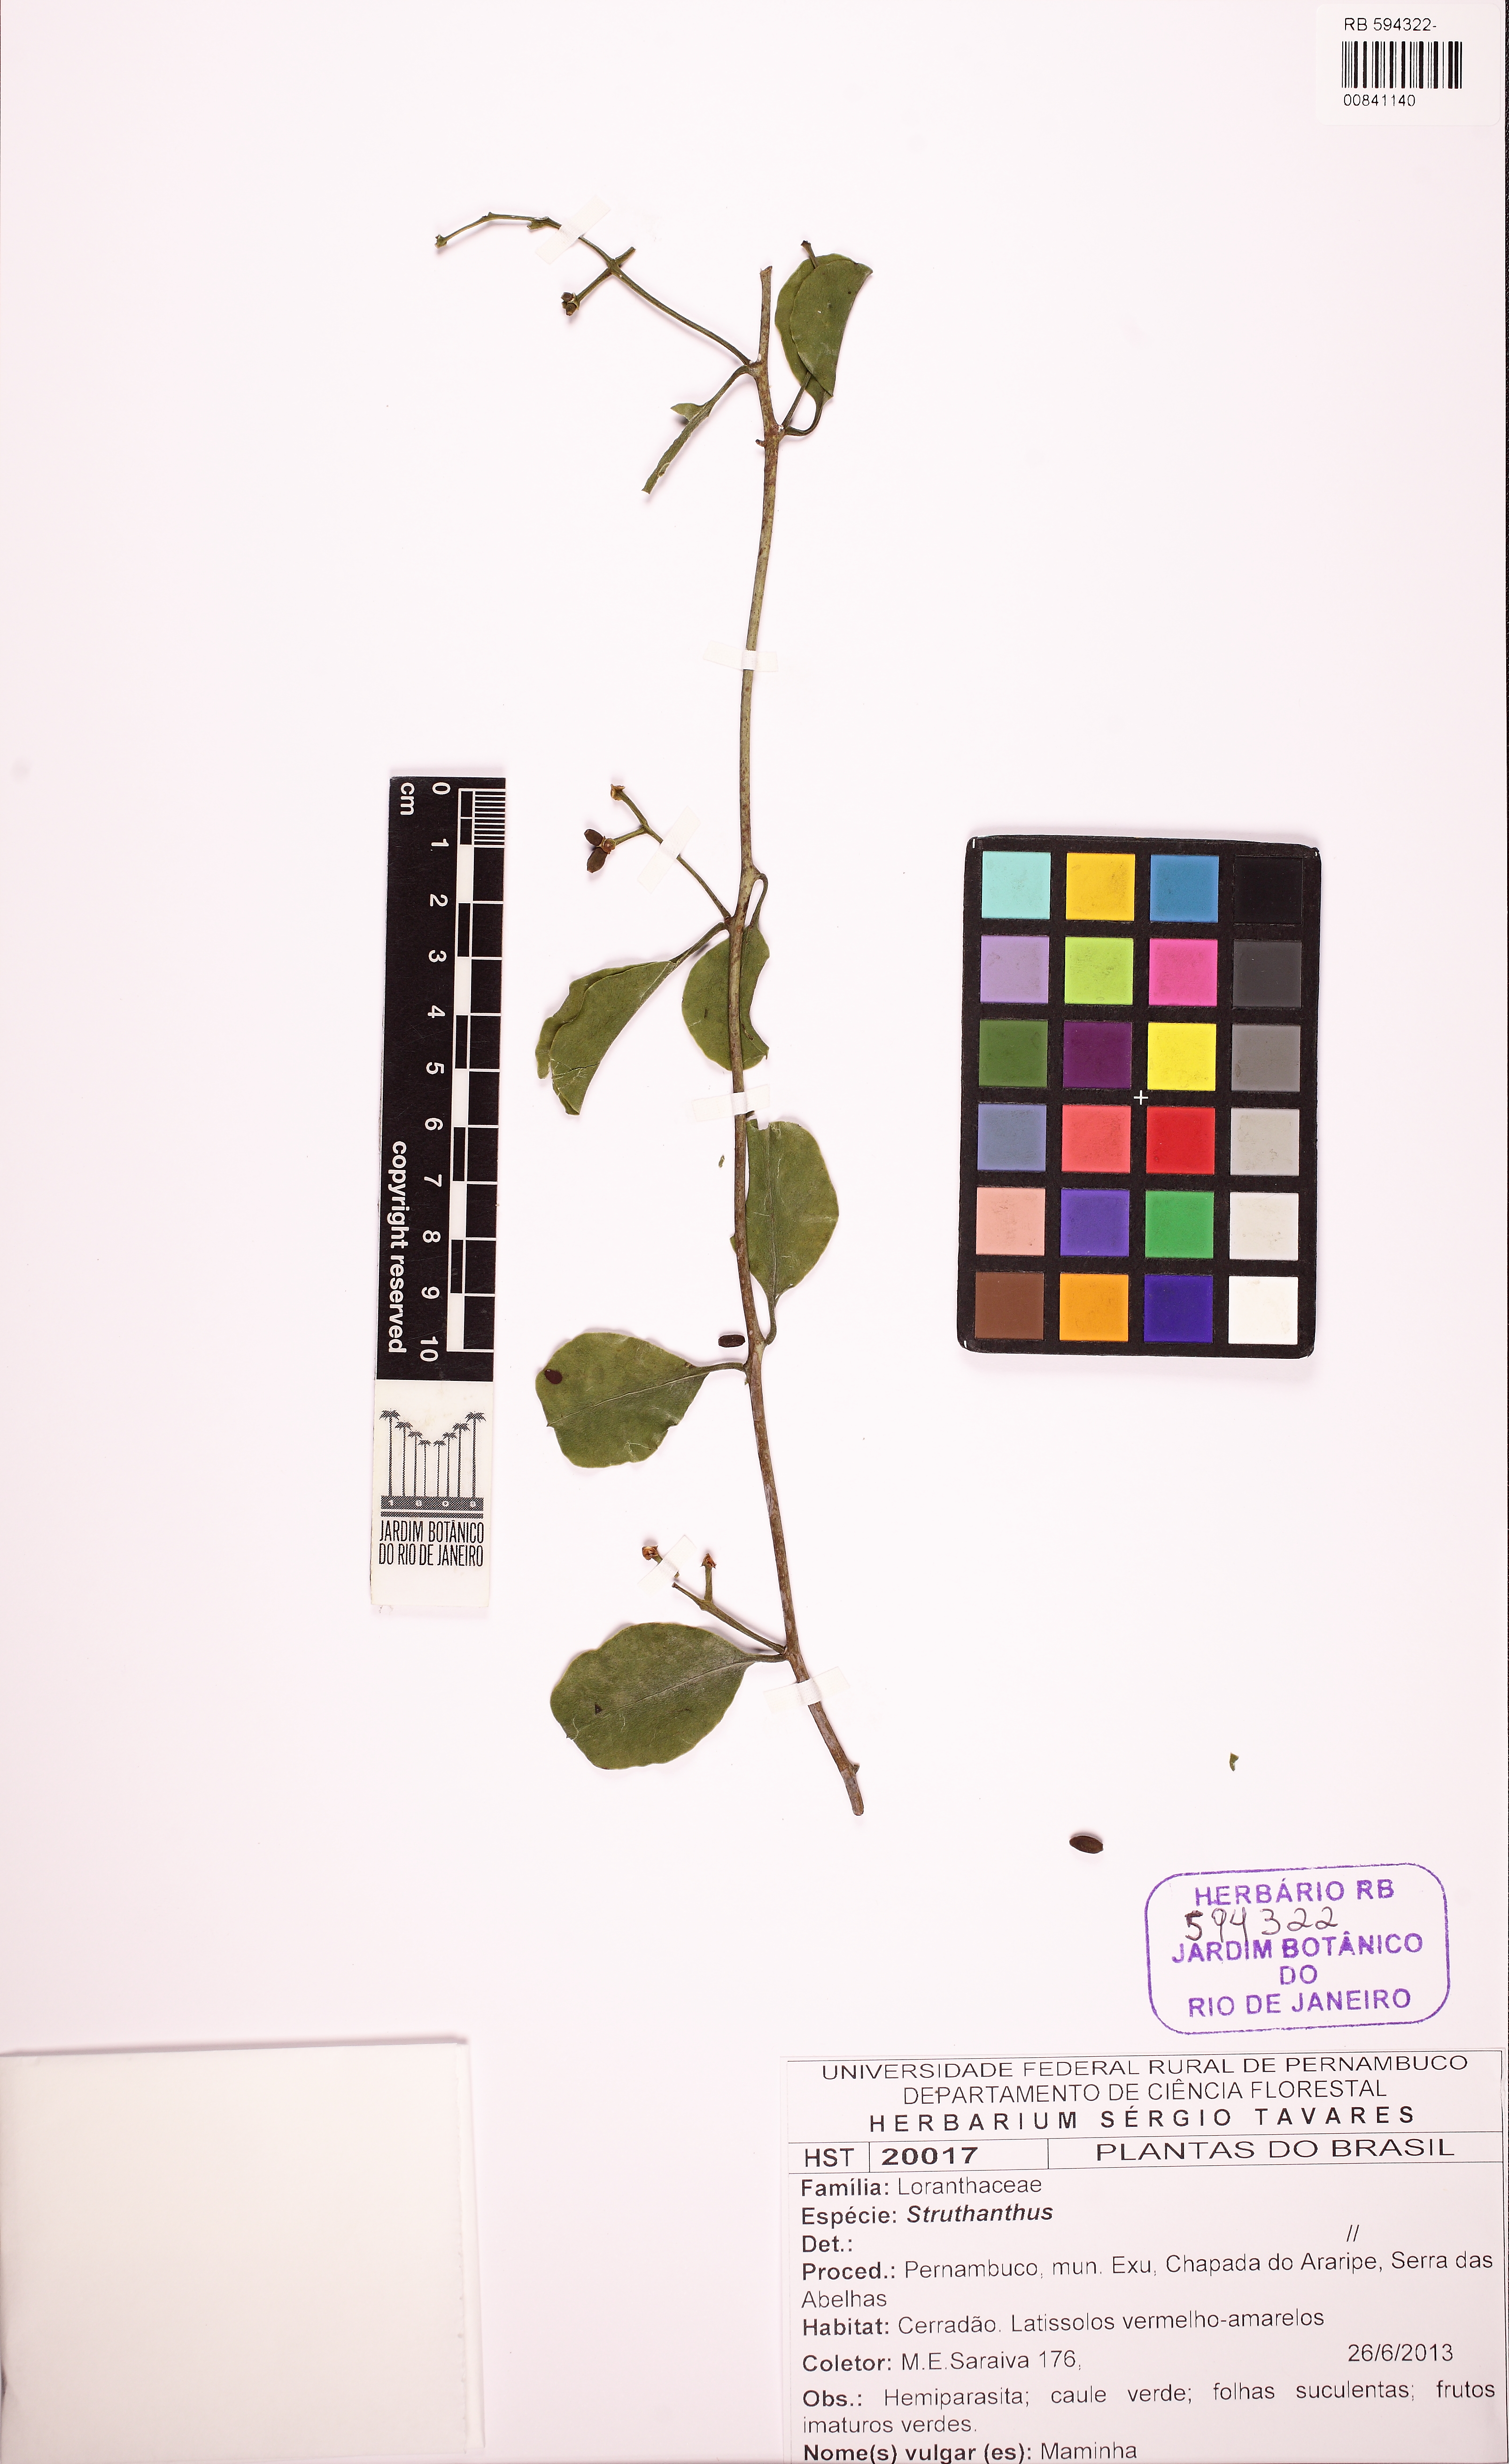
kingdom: Plantae
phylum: Tracheophyta
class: Magnoliopsida
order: Santalales
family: Loranthaceae
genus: Struthanthus
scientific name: Struthanthus
